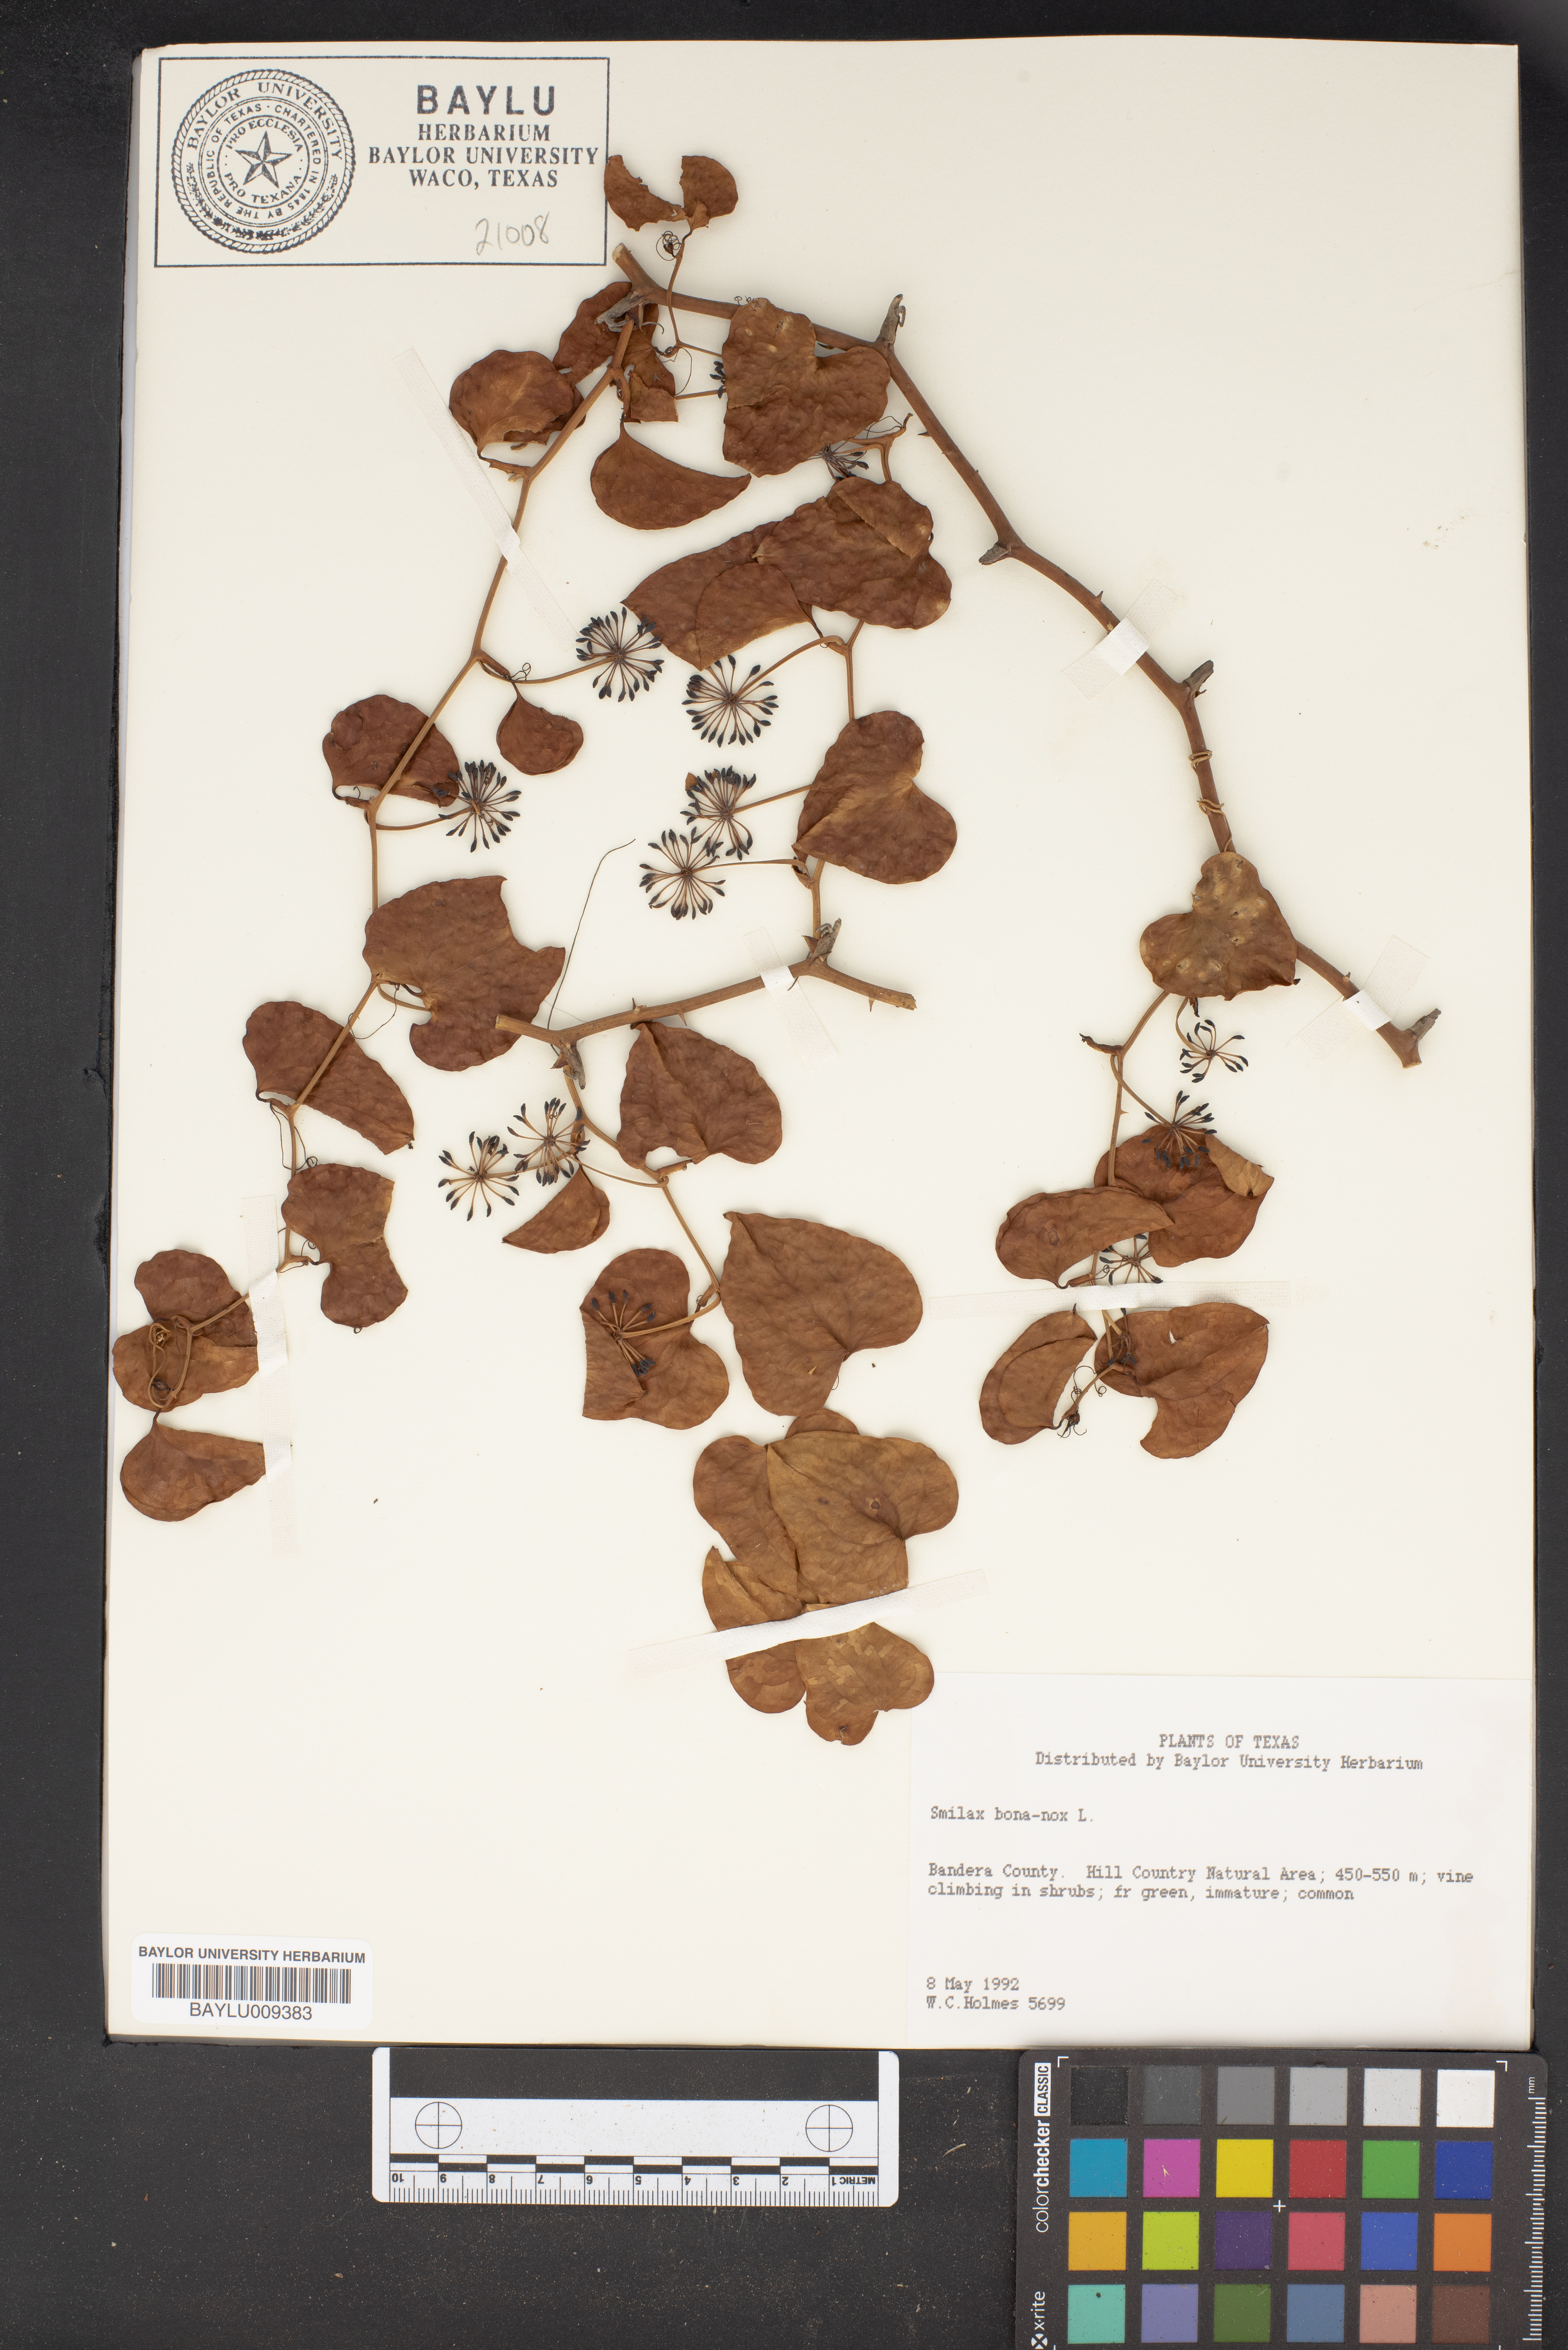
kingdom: Plantae
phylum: Tracheophyta
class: Liliopsida
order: Liliales
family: Smilacaceae
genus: Smilax
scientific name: Smilax bona-nox
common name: Catbrier
